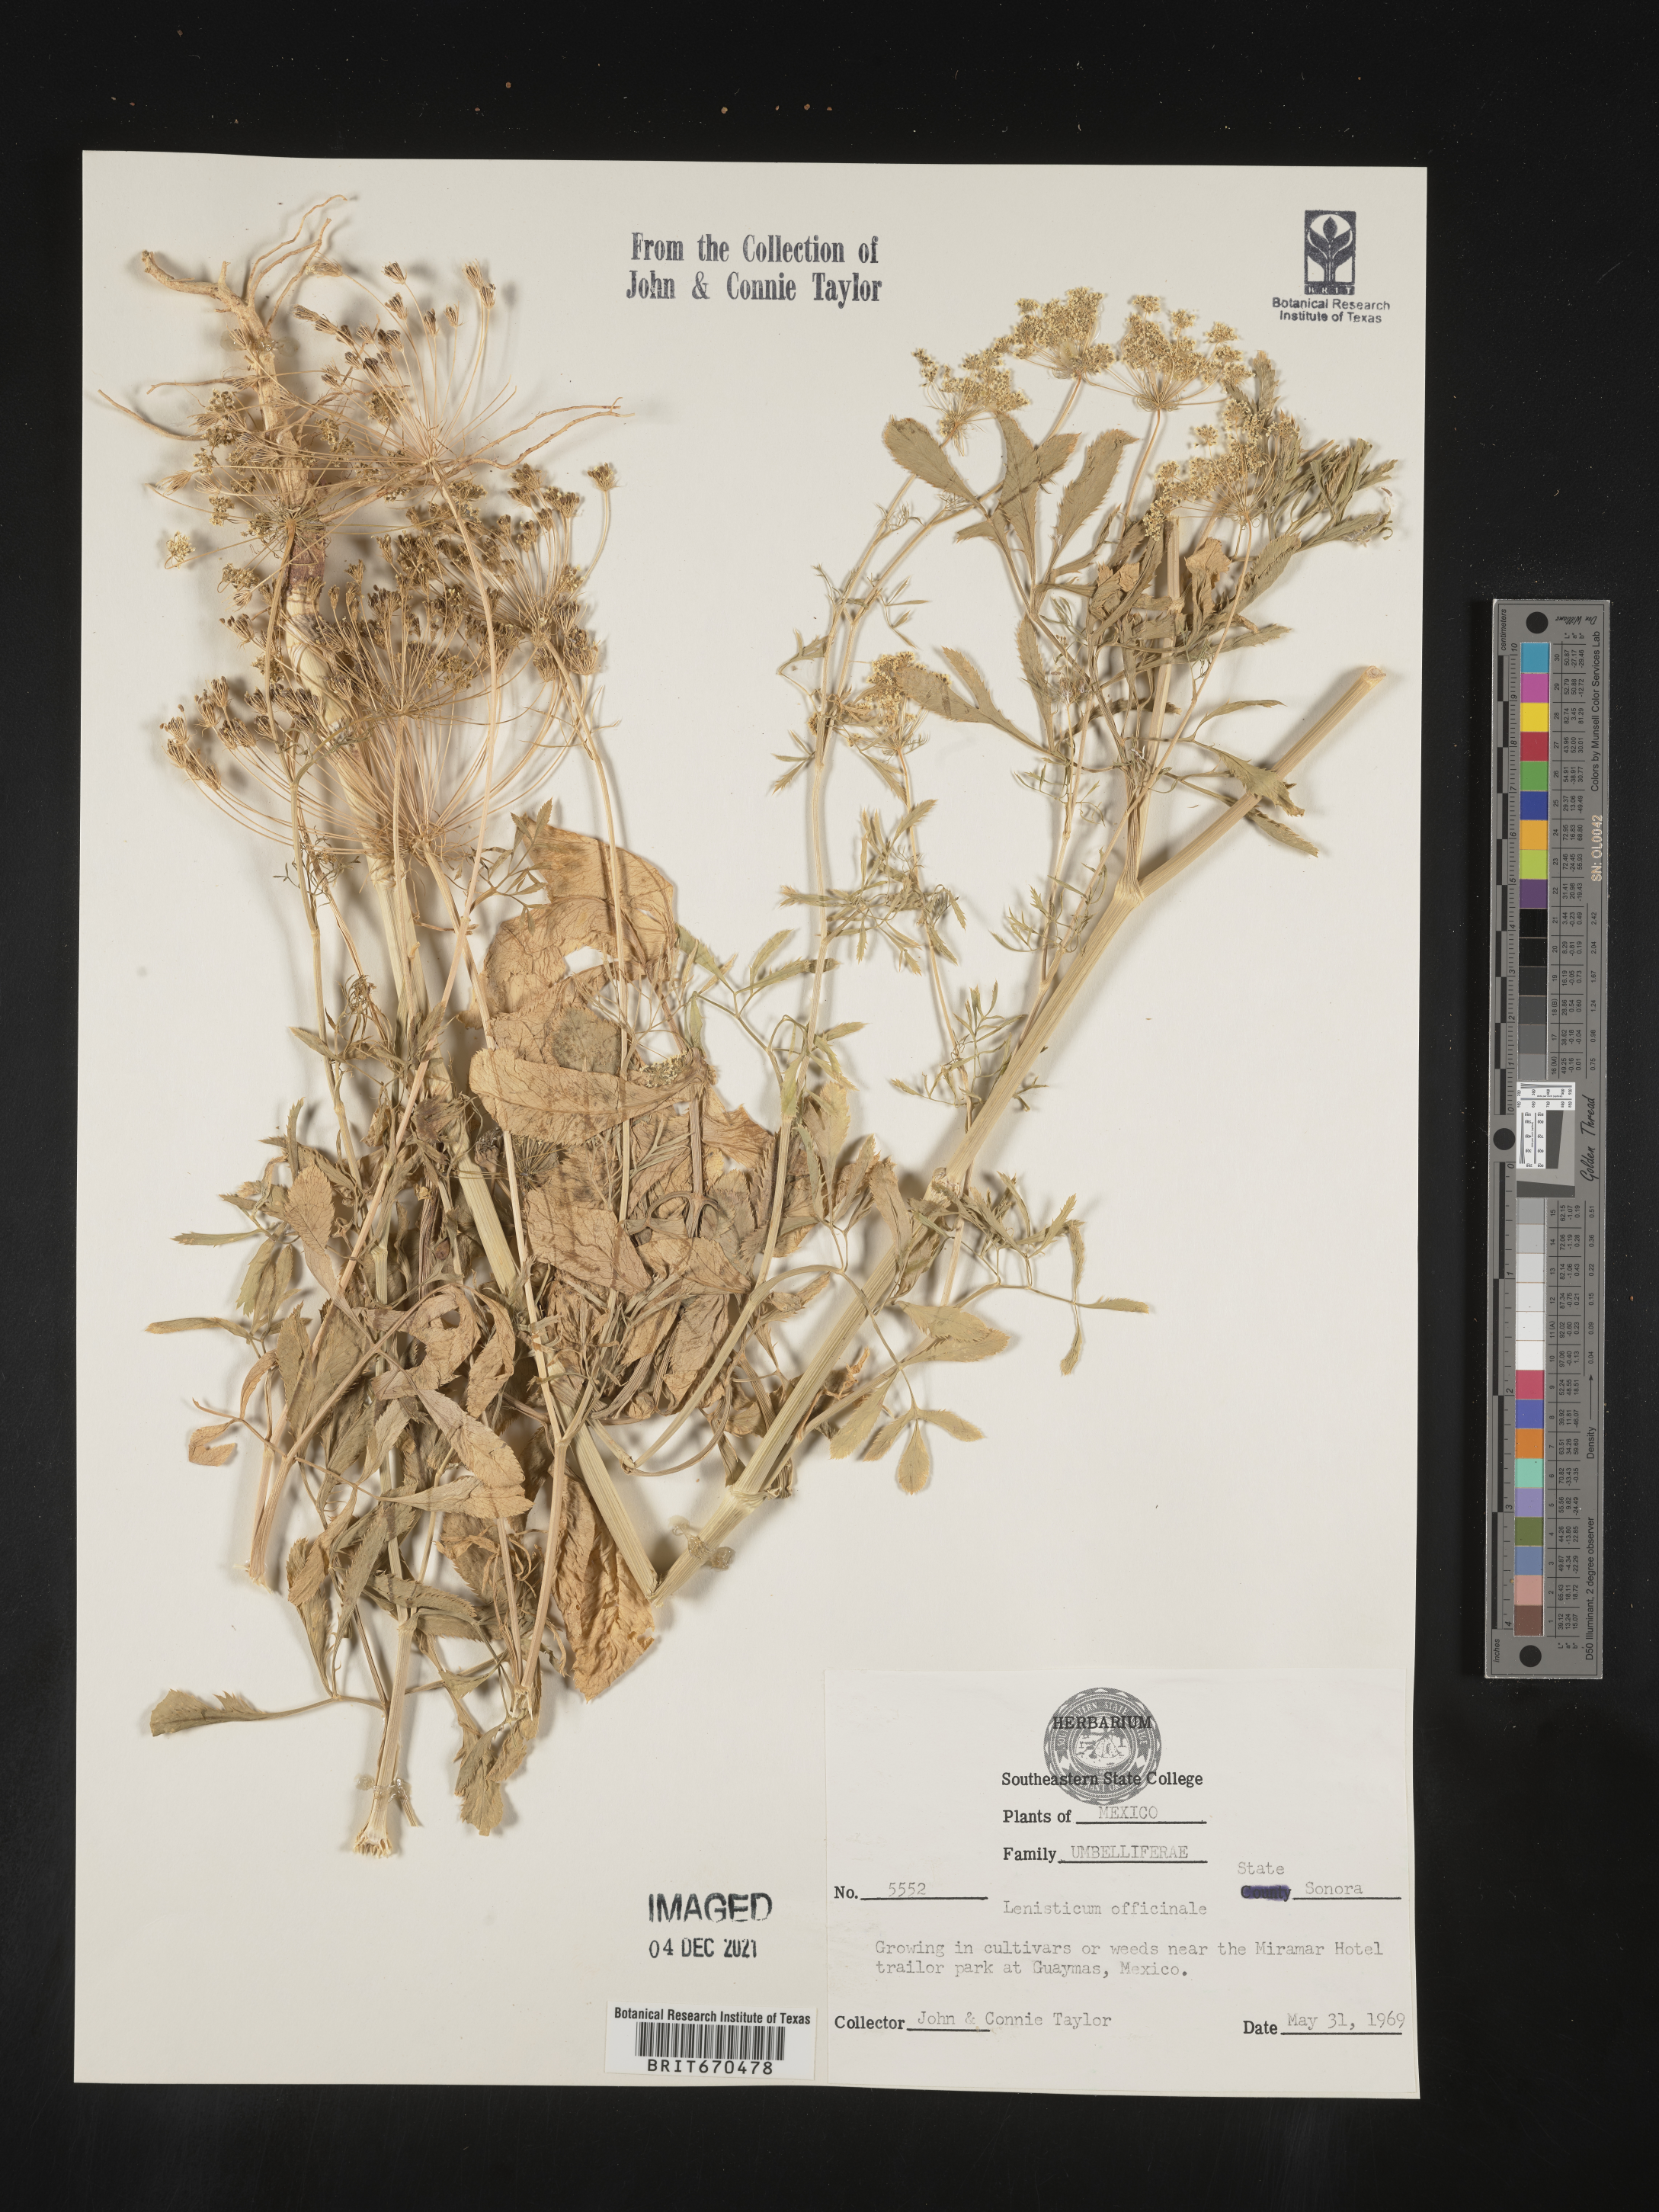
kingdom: Plantae
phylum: Tracheophyta
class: Magnoliopsida
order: Apiales
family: Apiaceae
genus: Levisticum
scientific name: Levisticum officinale
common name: Lovage
